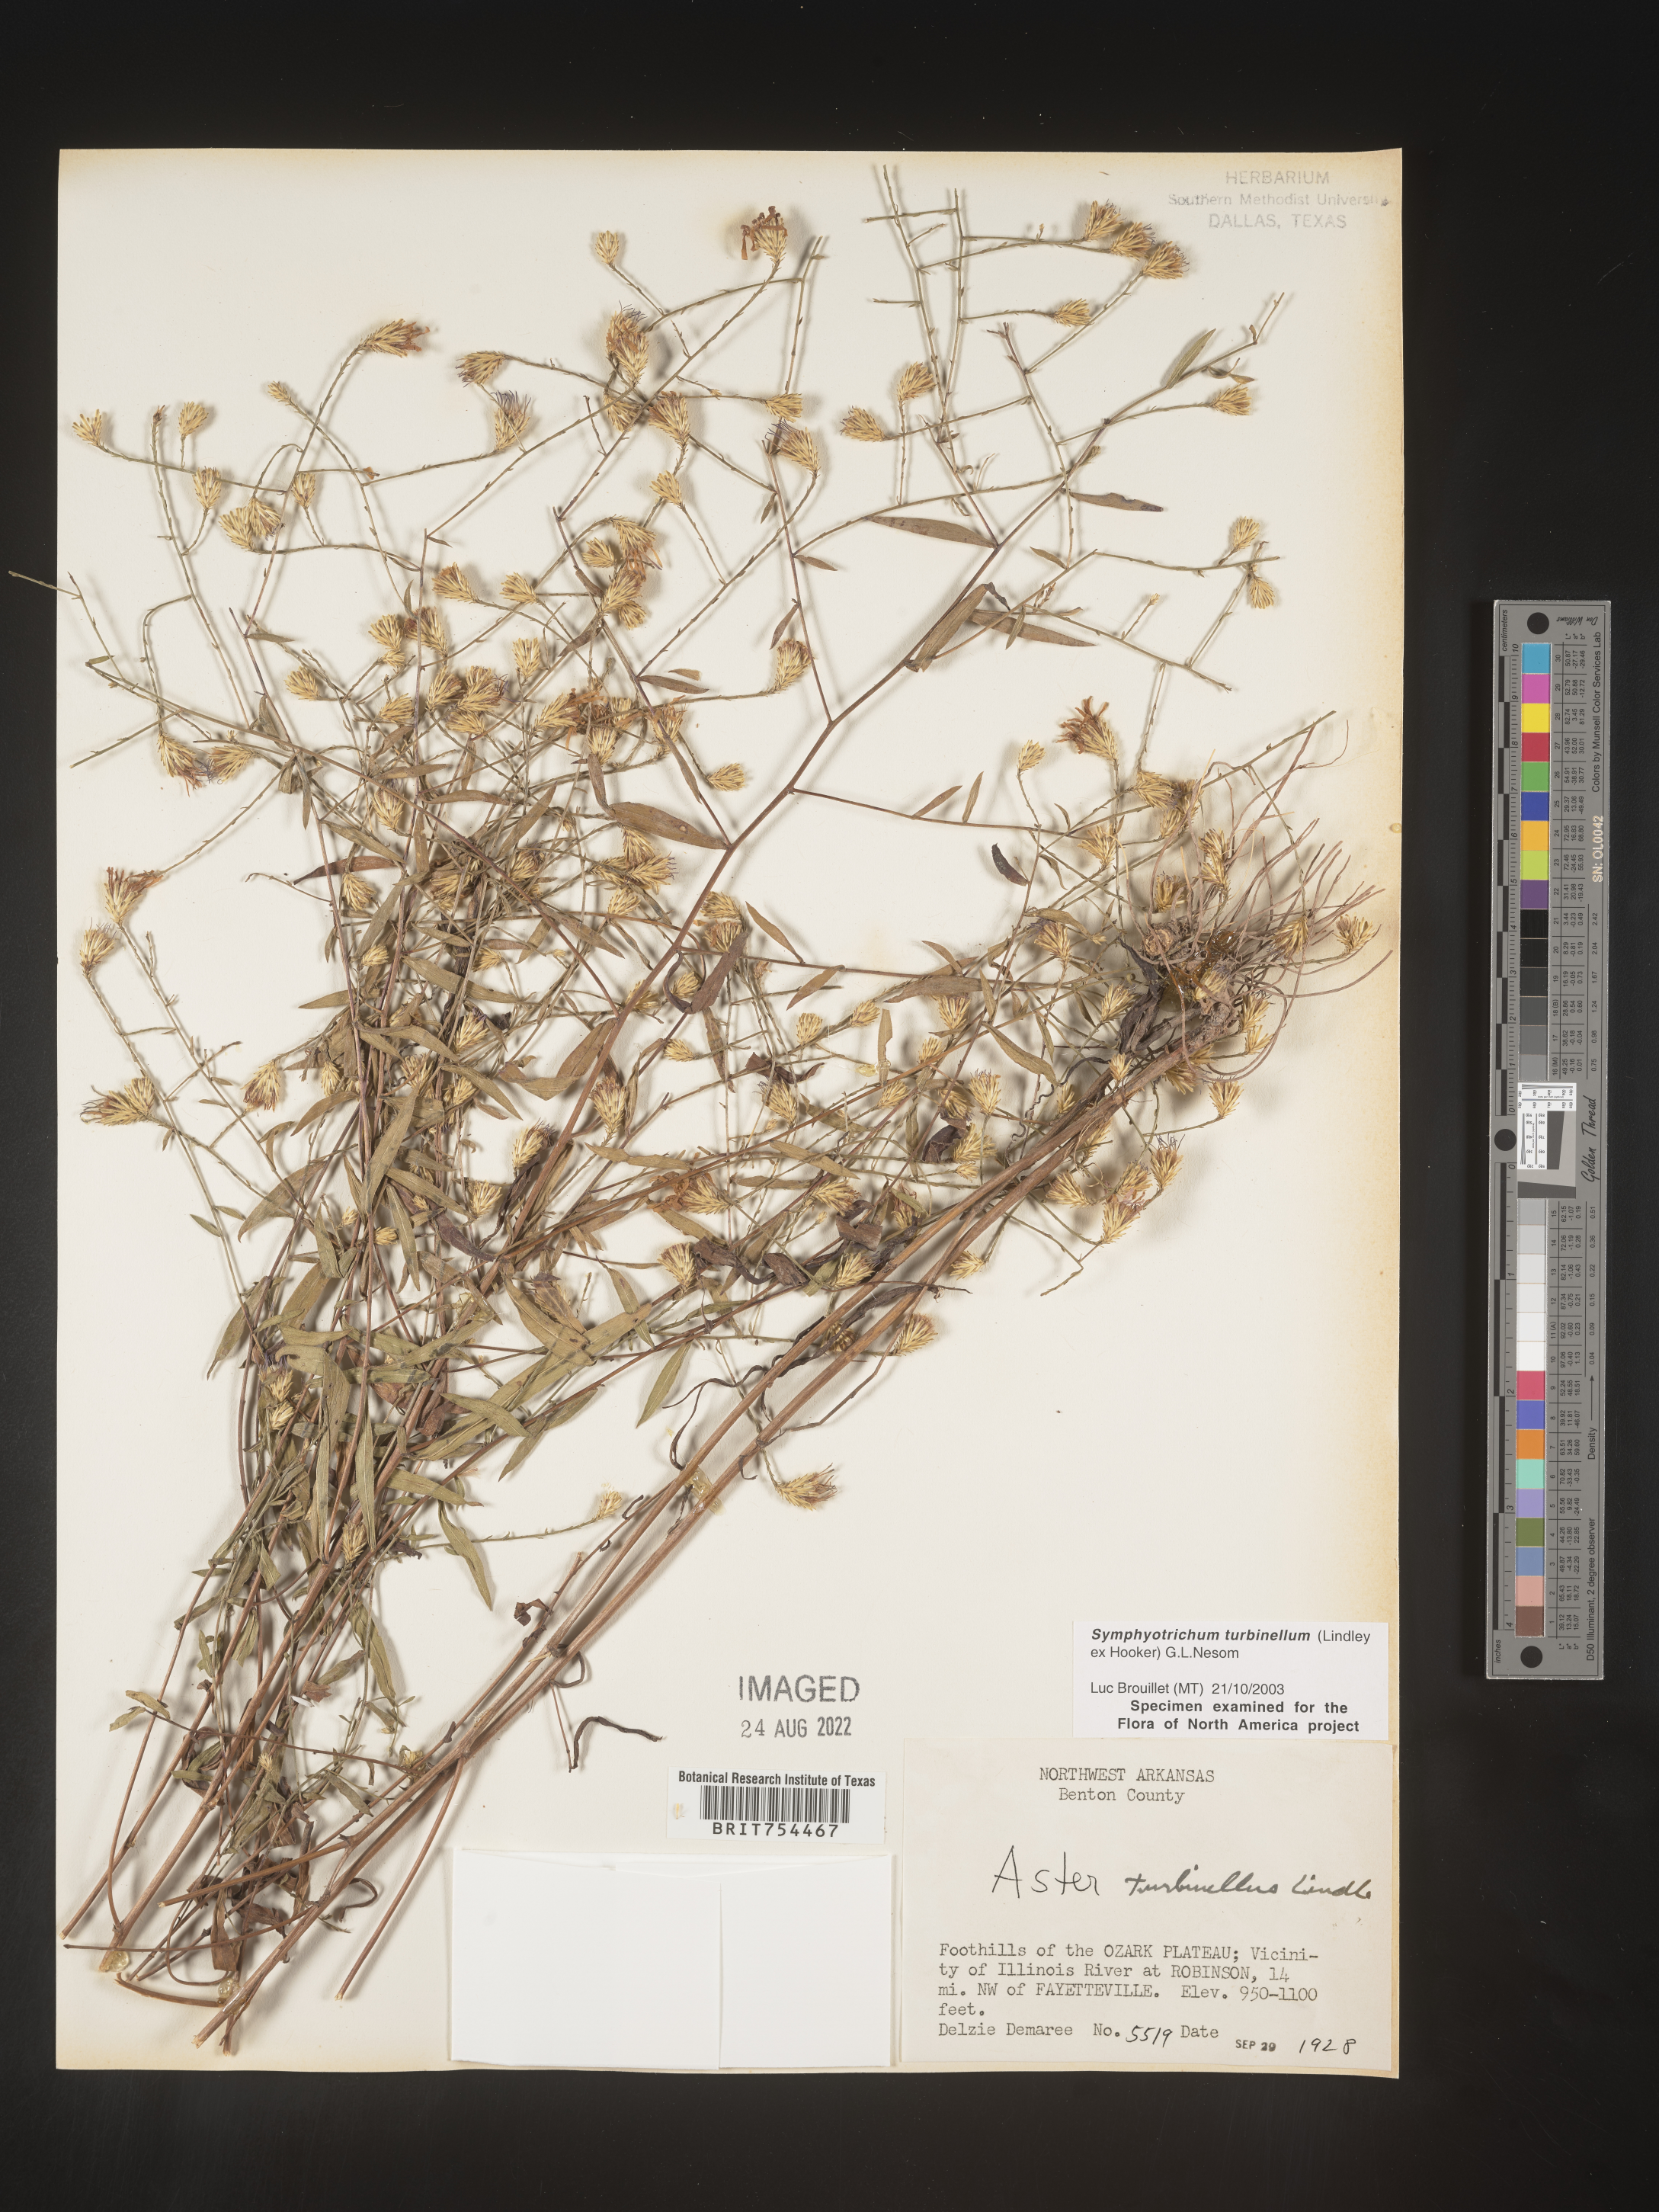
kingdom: Plantae
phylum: Tracheophyta
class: Magnoliopsida
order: Asterales
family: Asteraceae
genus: Symphyotrichum
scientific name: Symphyotrichum turbinellum
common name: Prairie aster
